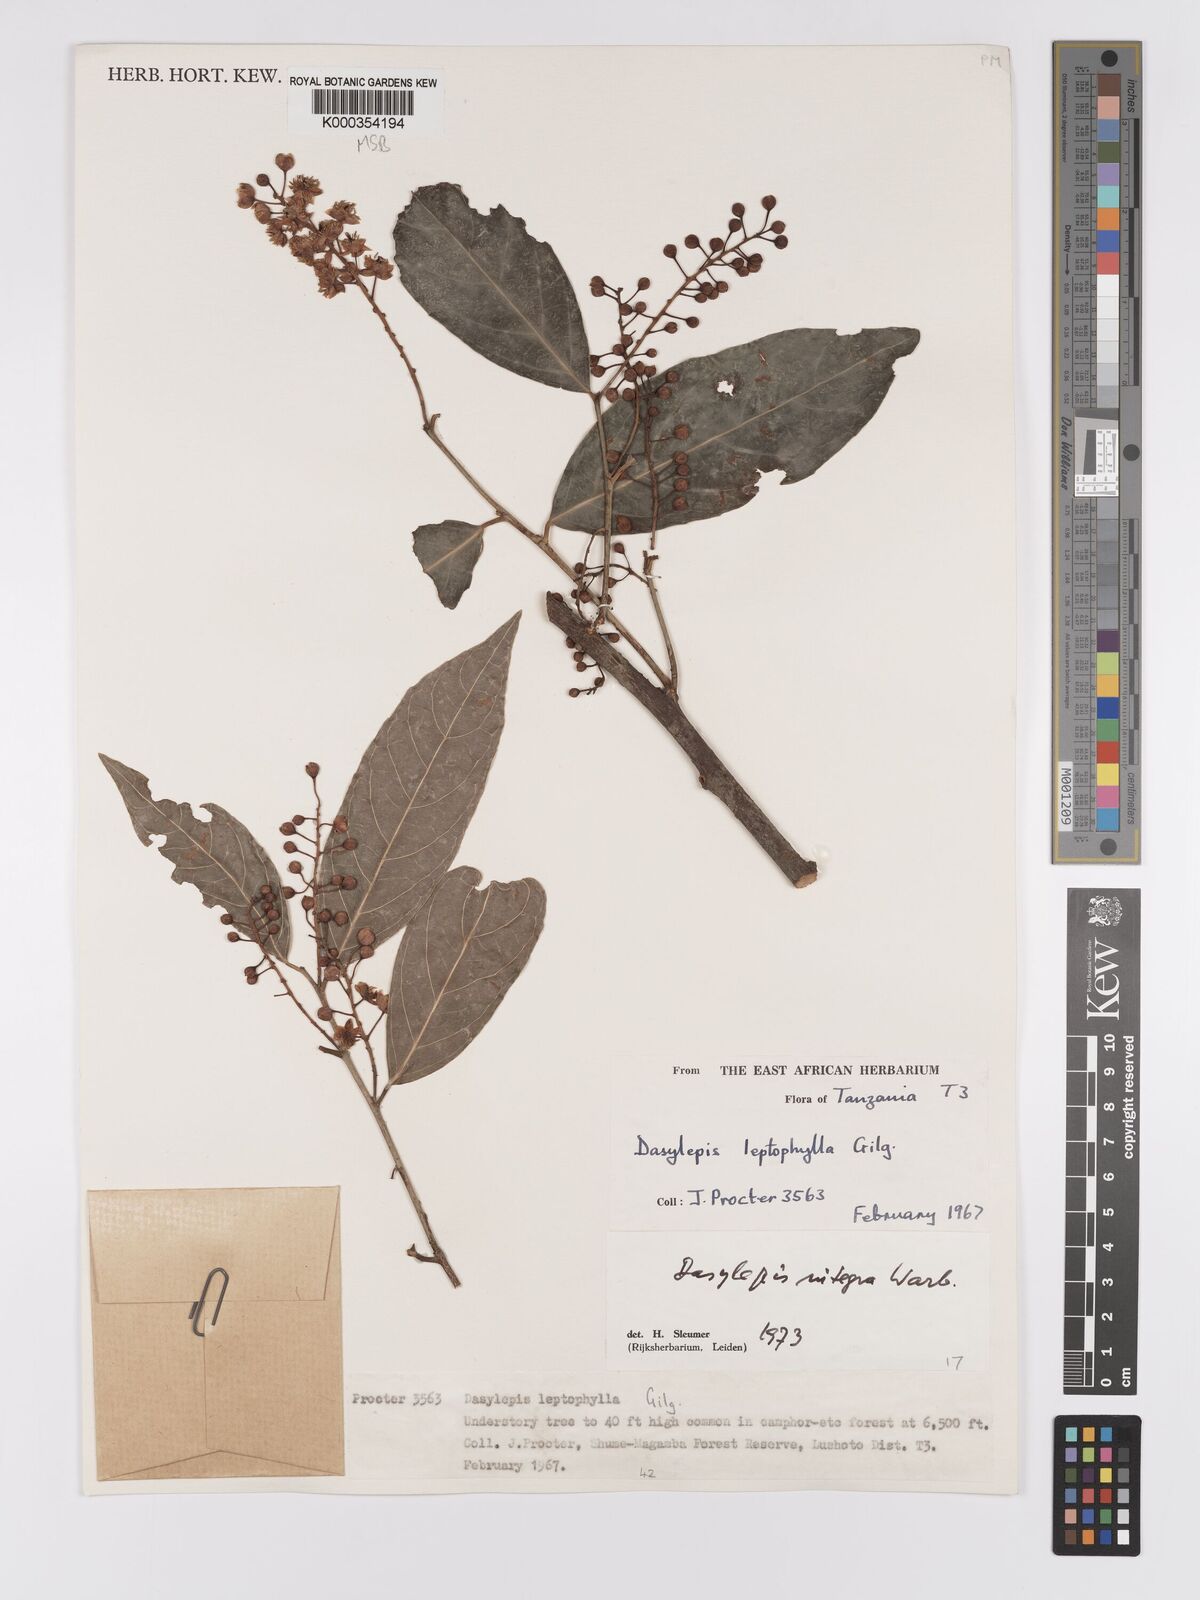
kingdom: Plantae
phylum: Tracheophyta
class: Magnoliopsida
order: Malpighiales
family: Achariaceae
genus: Dasylepis
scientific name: Dasylepis integra
